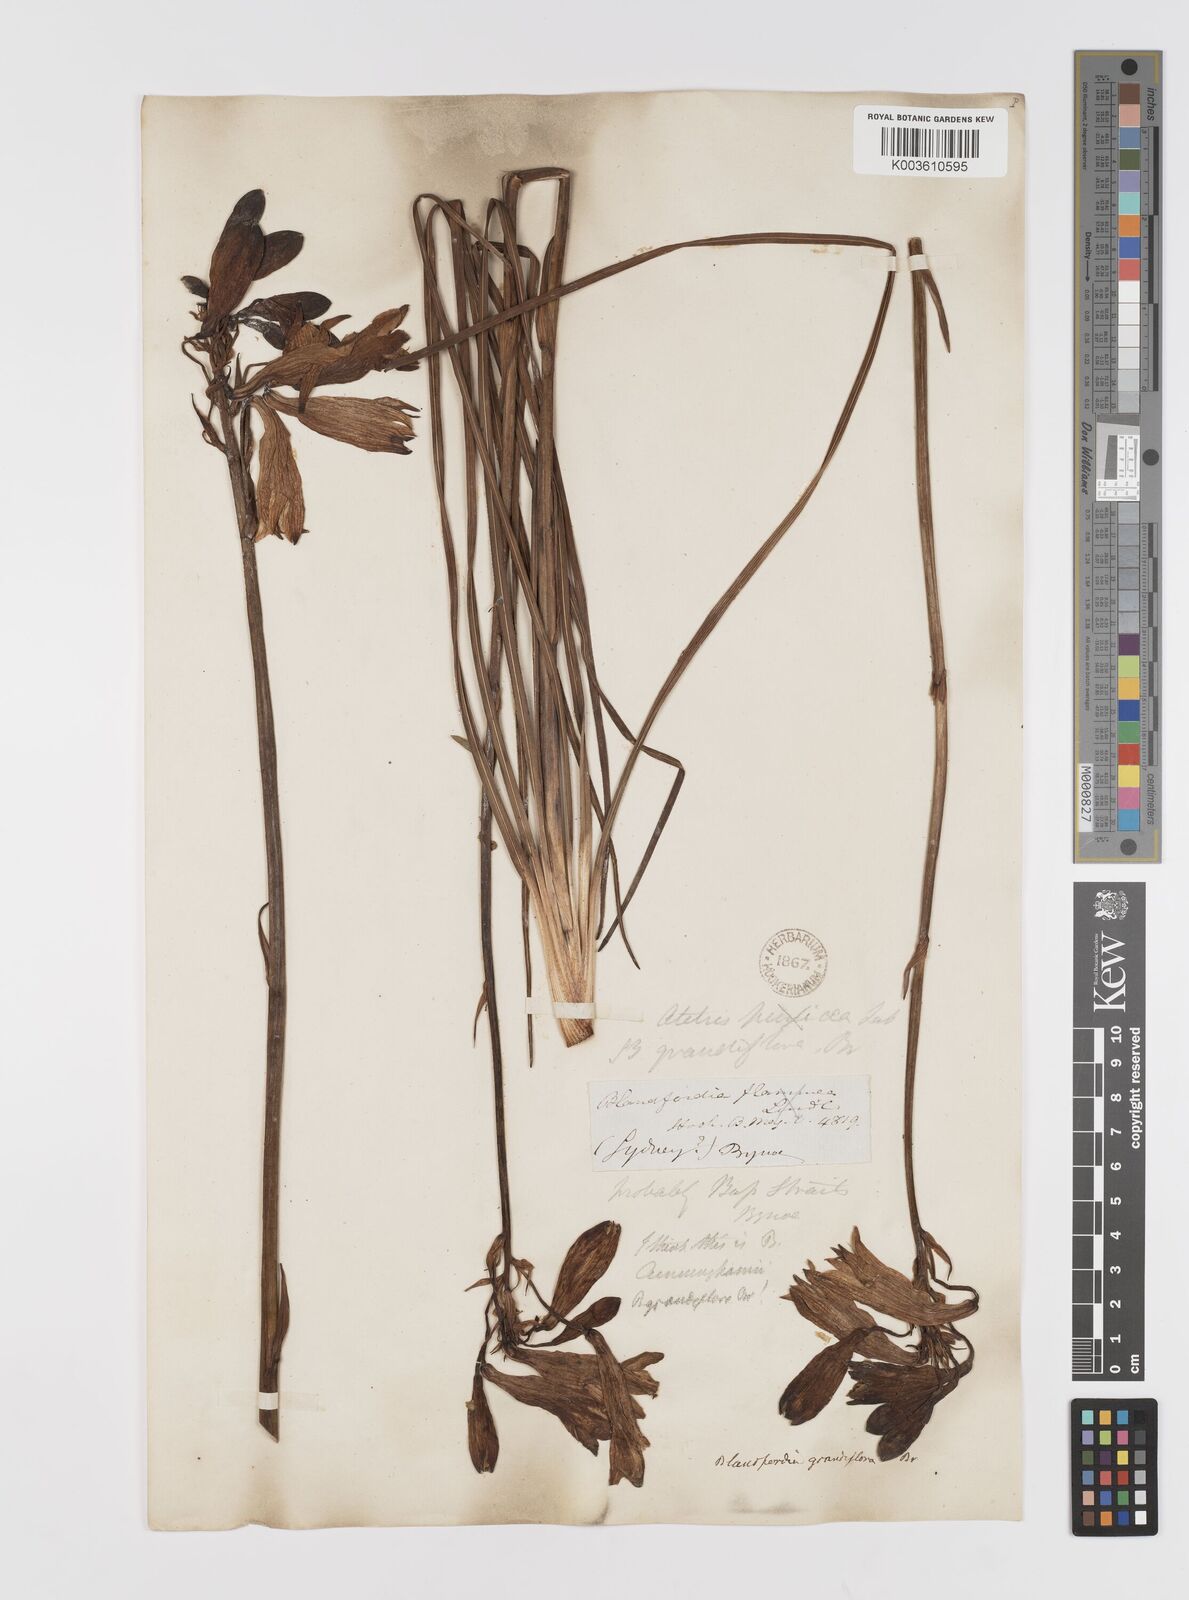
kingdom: Plantae
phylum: Tracheophyta
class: Liliopsida
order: Asparagales
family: Blandfordiaceae
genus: Blandfordia
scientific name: Blandfordia cunninghamii
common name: Christmas-bell
